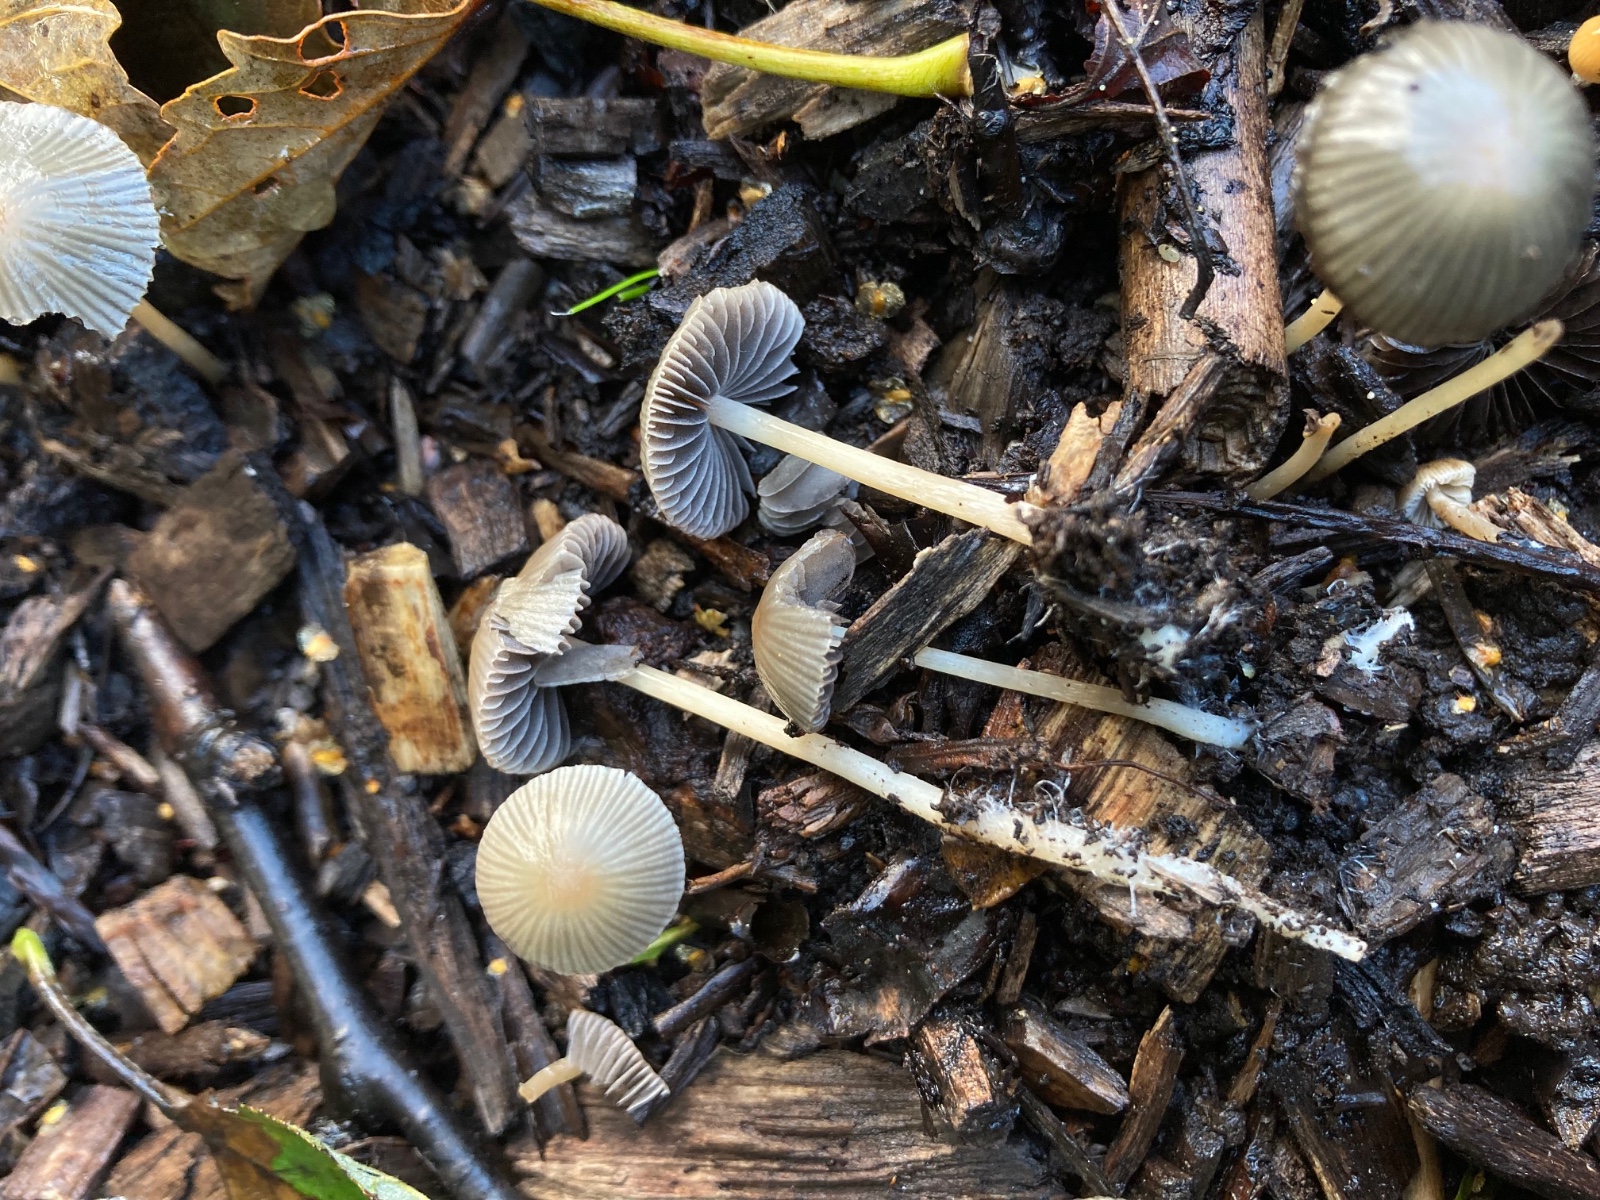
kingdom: Fungi
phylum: Basidiomycota
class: Agaricomycetes
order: Agaricales
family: Psathyrellaceae
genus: Psathyrella
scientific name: Psathyrella corrugis
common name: rødægget mørkhat
